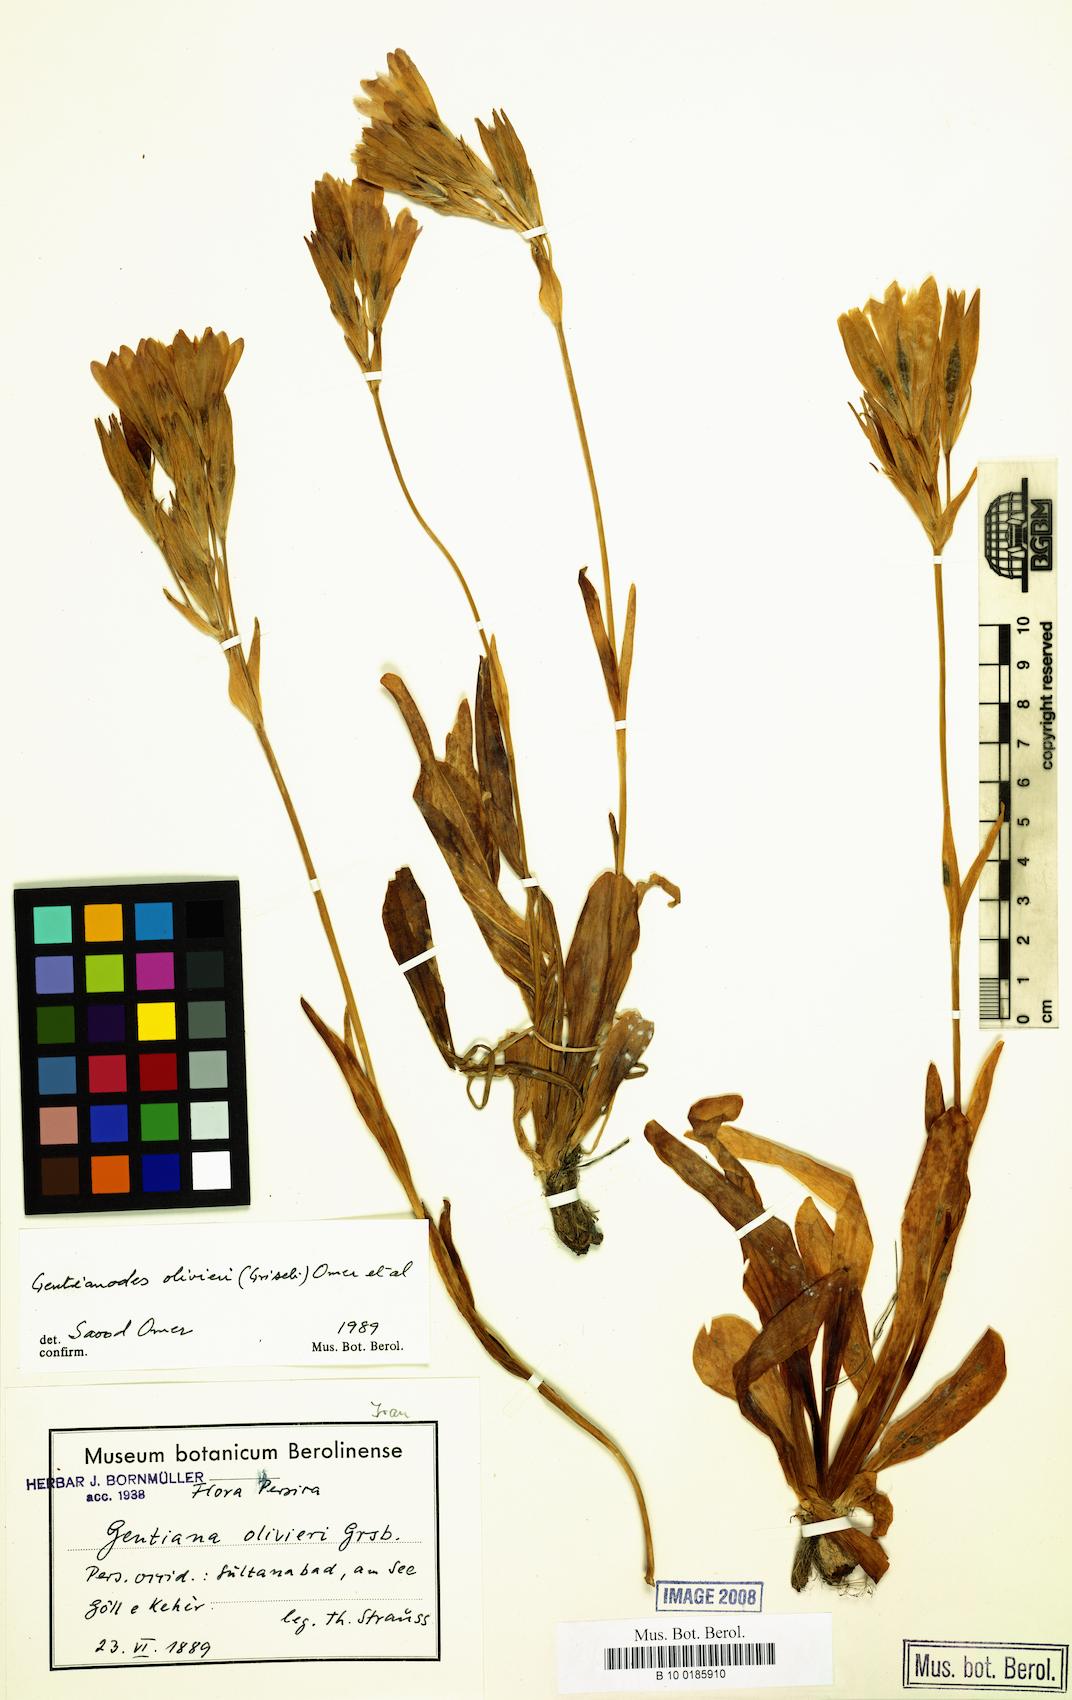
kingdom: Plantae
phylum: Tracheophyta
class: Magnoliopsida
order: Gentianales
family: Gentianaceae
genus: Gentiana
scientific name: Gentiana olivieri
